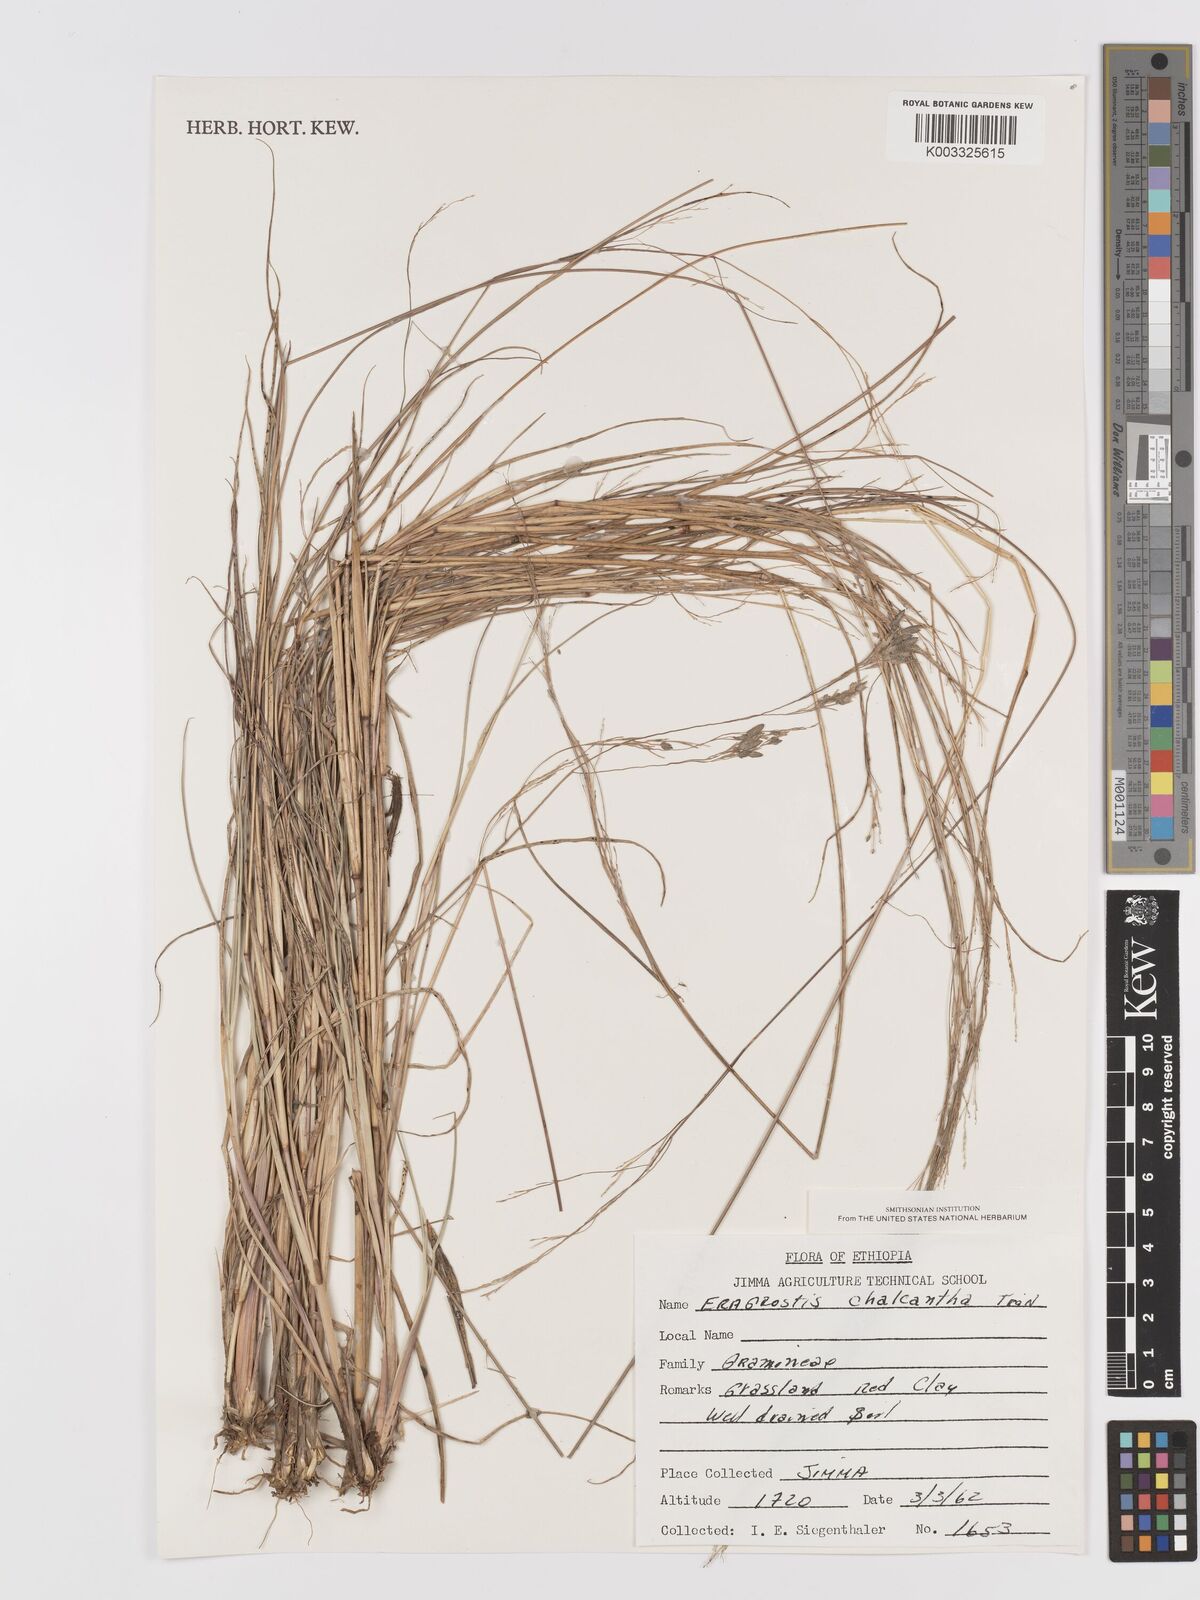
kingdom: Plantae
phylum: Tracheophyta
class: Liliopsida
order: Poales
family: Poaceae
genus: Eragrostis
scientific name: Eragrostis racemosa
